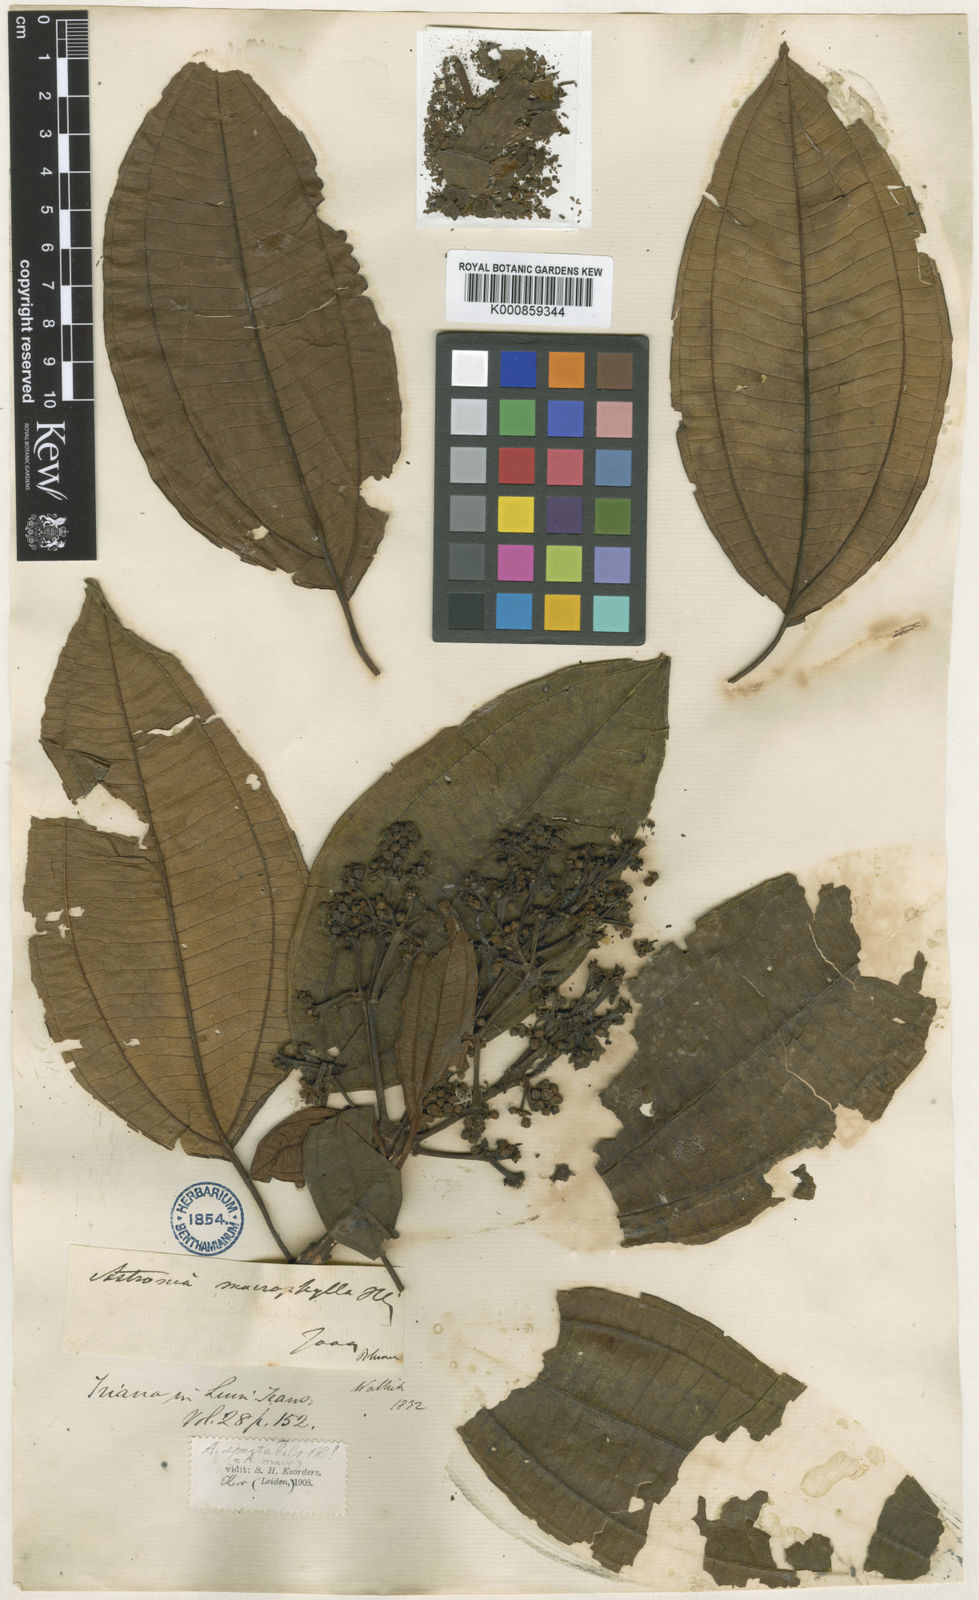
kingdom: Plantae
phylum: Tracheophyta
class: Magnoliopsida
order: Myrtales
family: Melastomataceae
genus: Astronia
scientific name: Astronia macrophylla
